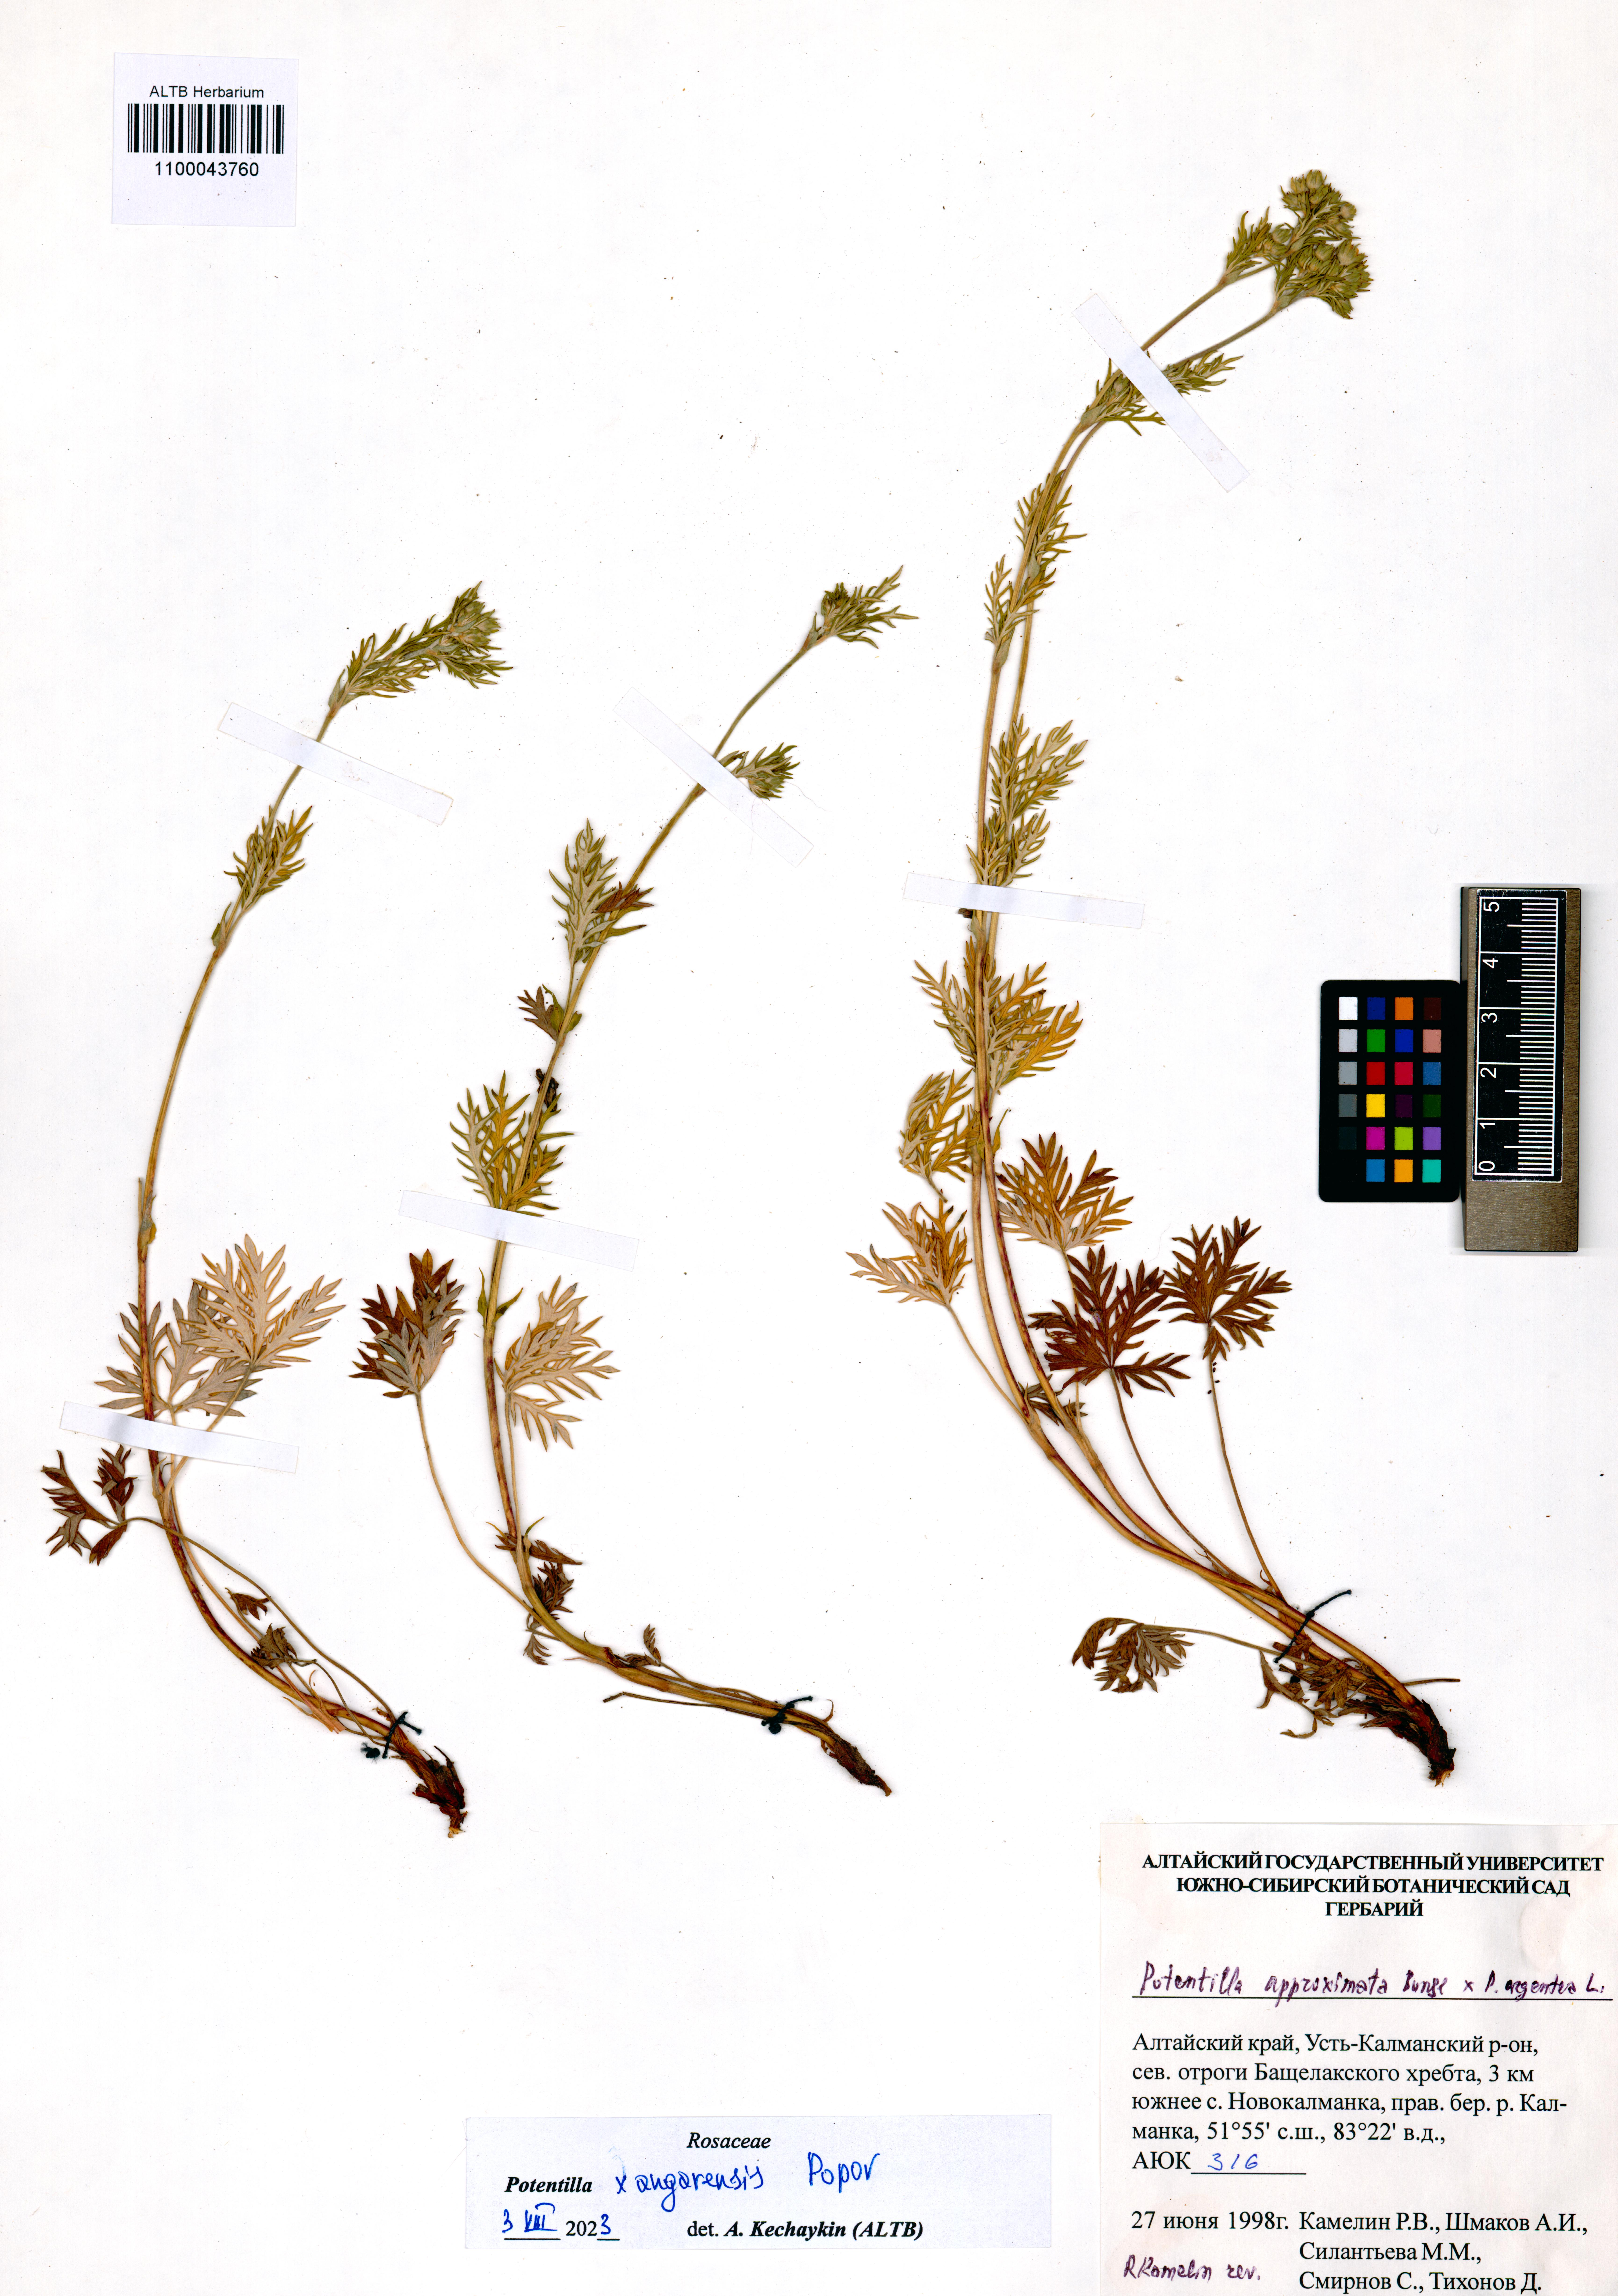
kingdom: Plantae
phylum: Tracheophyta
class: Magnoliopsida
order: Rosales
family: Rosaceae
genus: Potentilla
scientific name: Potentilla angarensis
